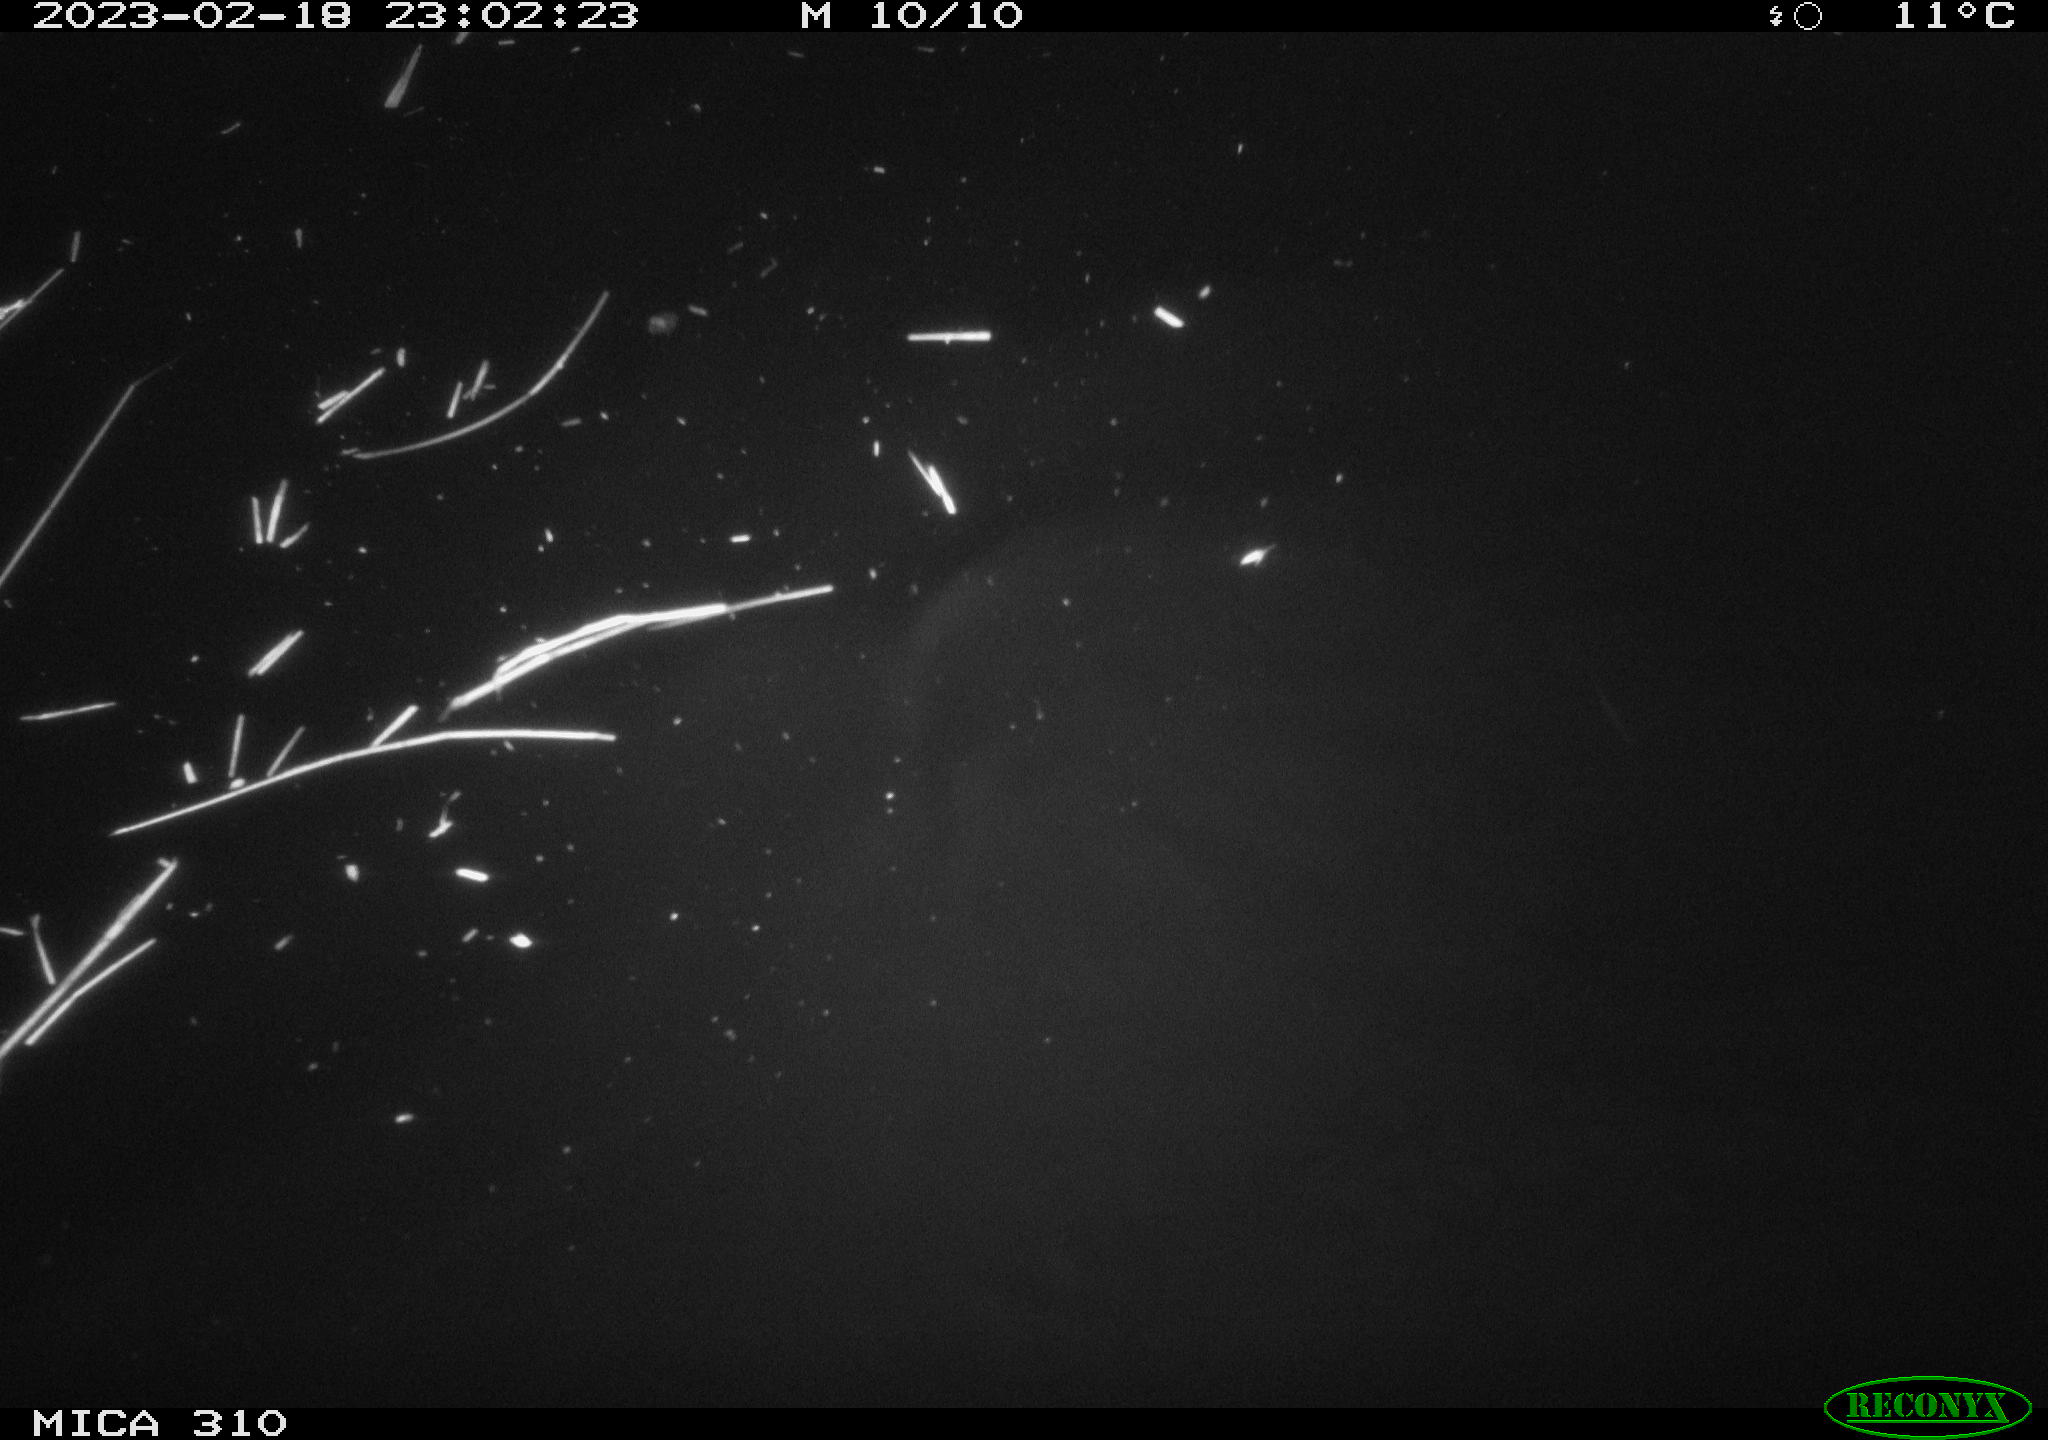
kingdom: Animalia
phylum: Chordata
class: Aves
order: Anseriformes
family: Anatidae
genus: Anas
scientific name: Anas
